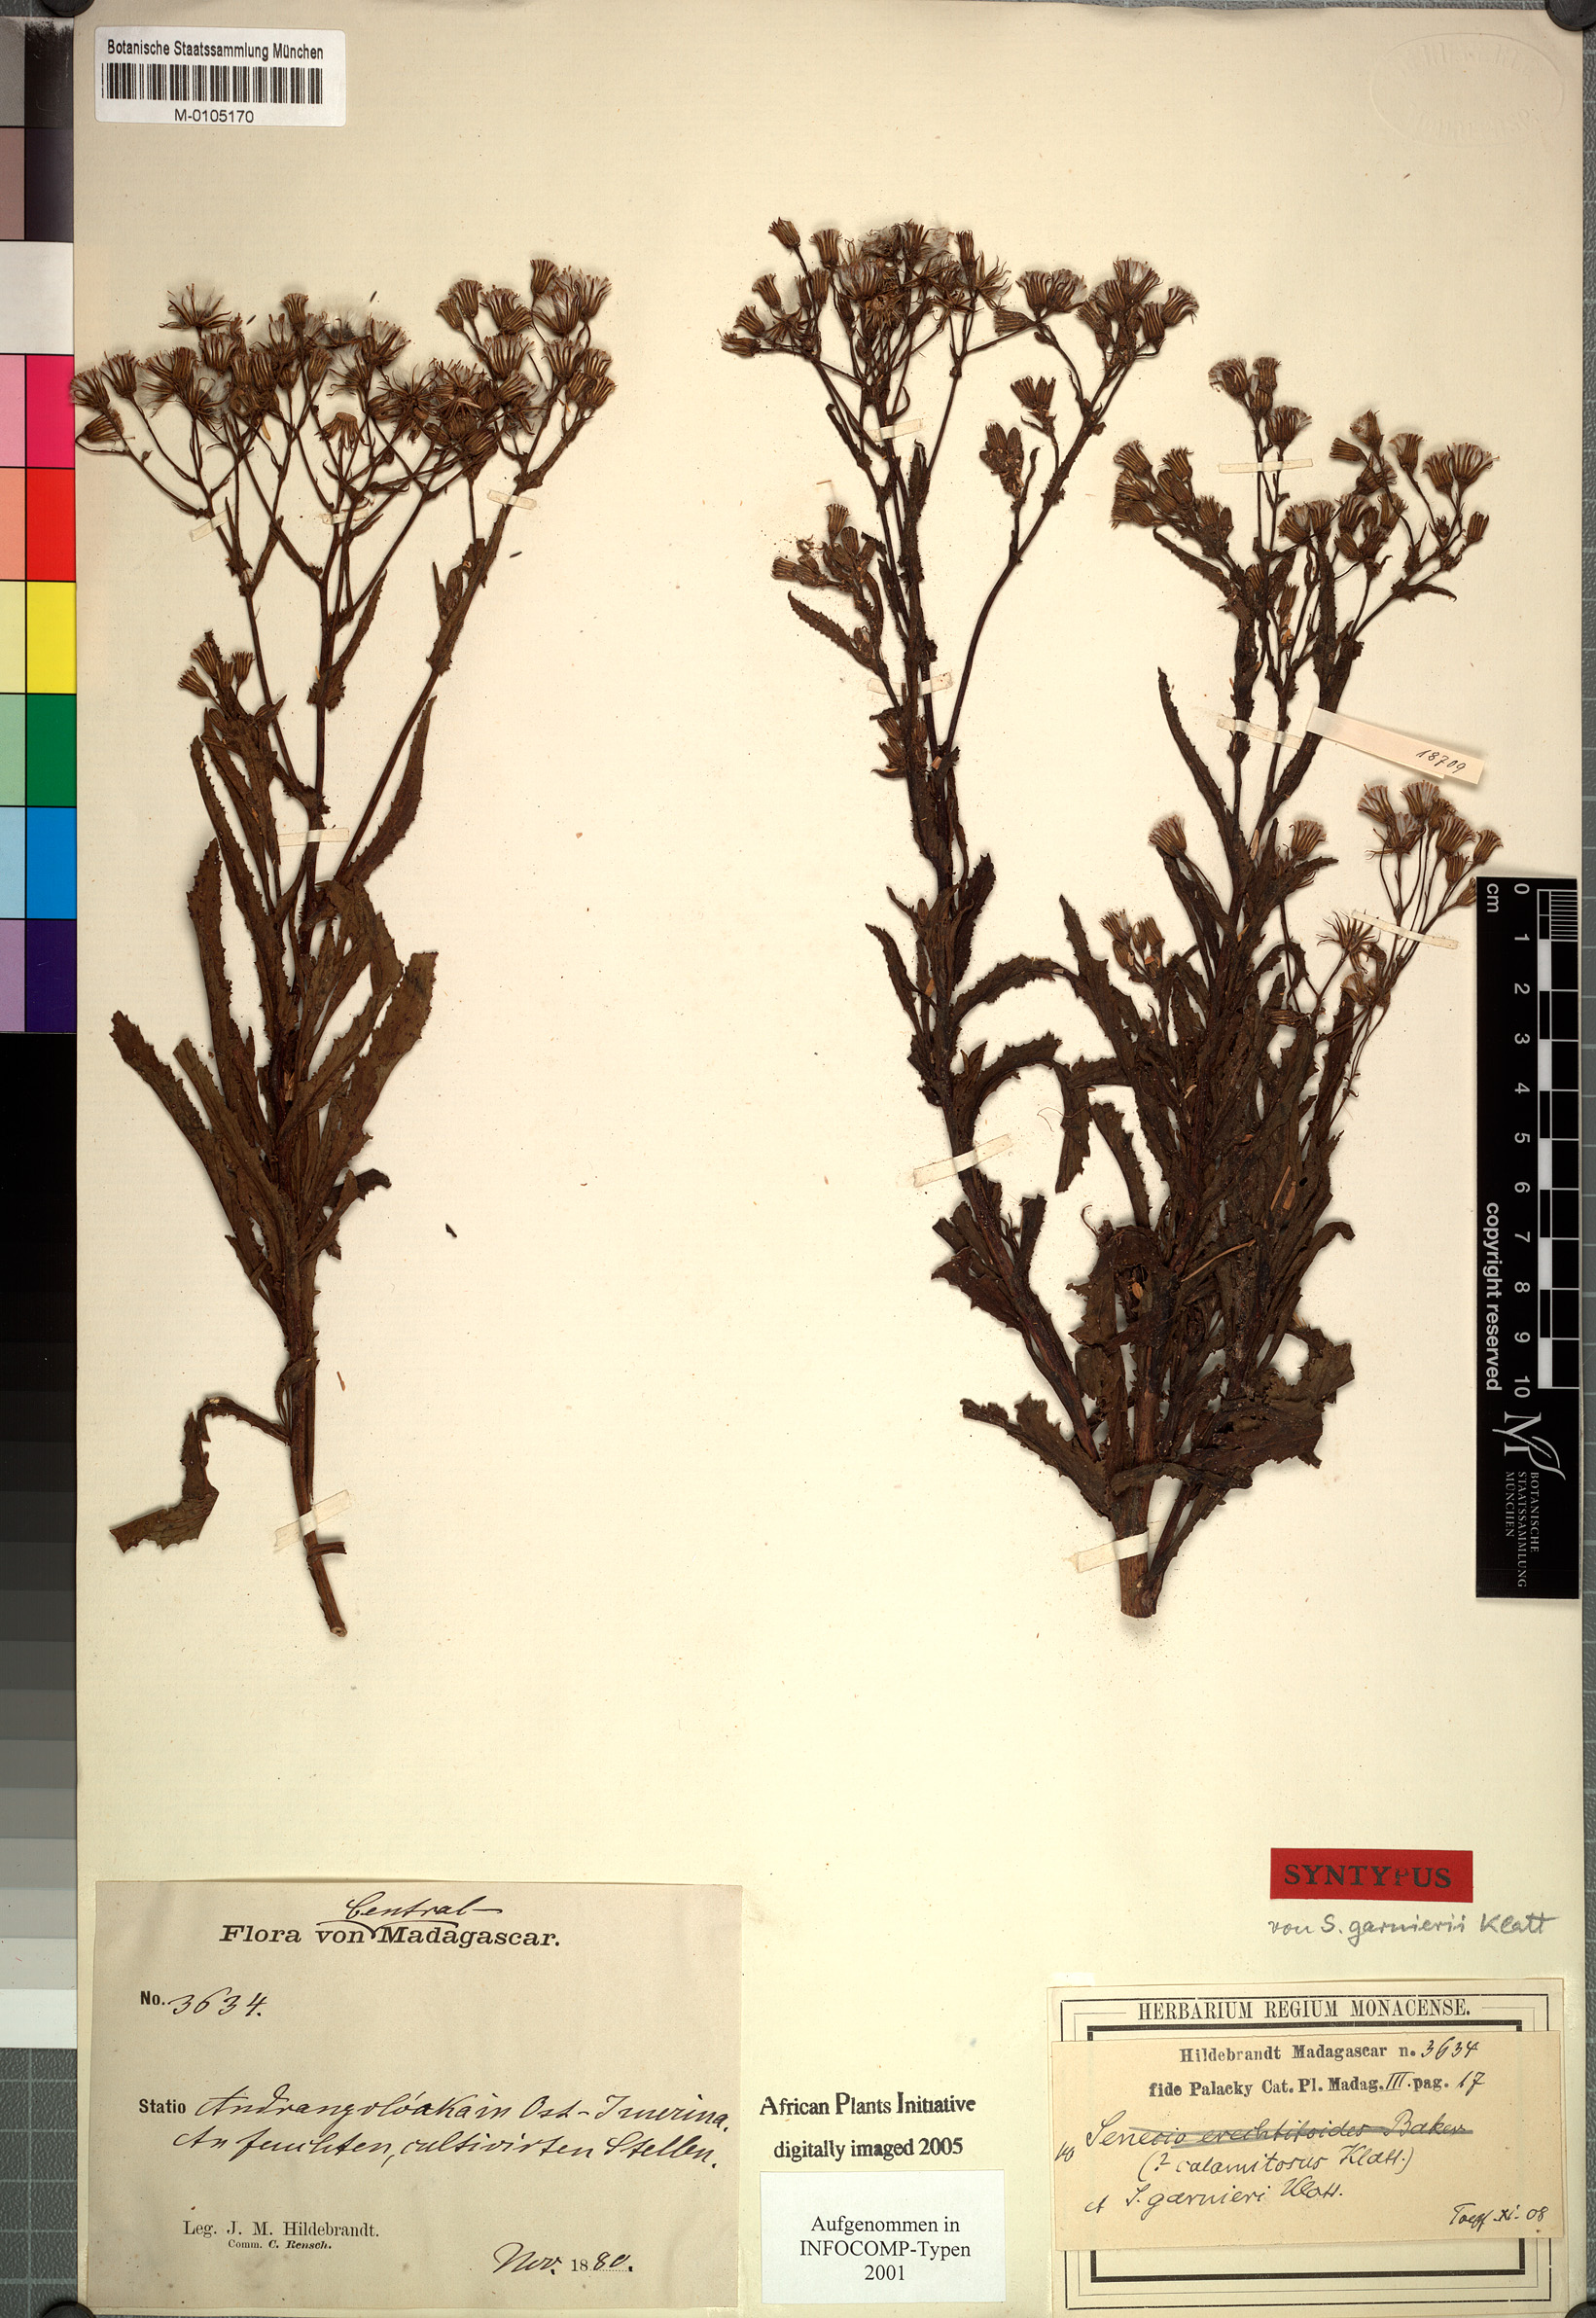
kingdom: Plantae
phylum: Tracheophyta
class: Magnoliopsida
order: Asterales
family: Asteraceae
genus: Senecio
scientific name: Senecio garnieri
